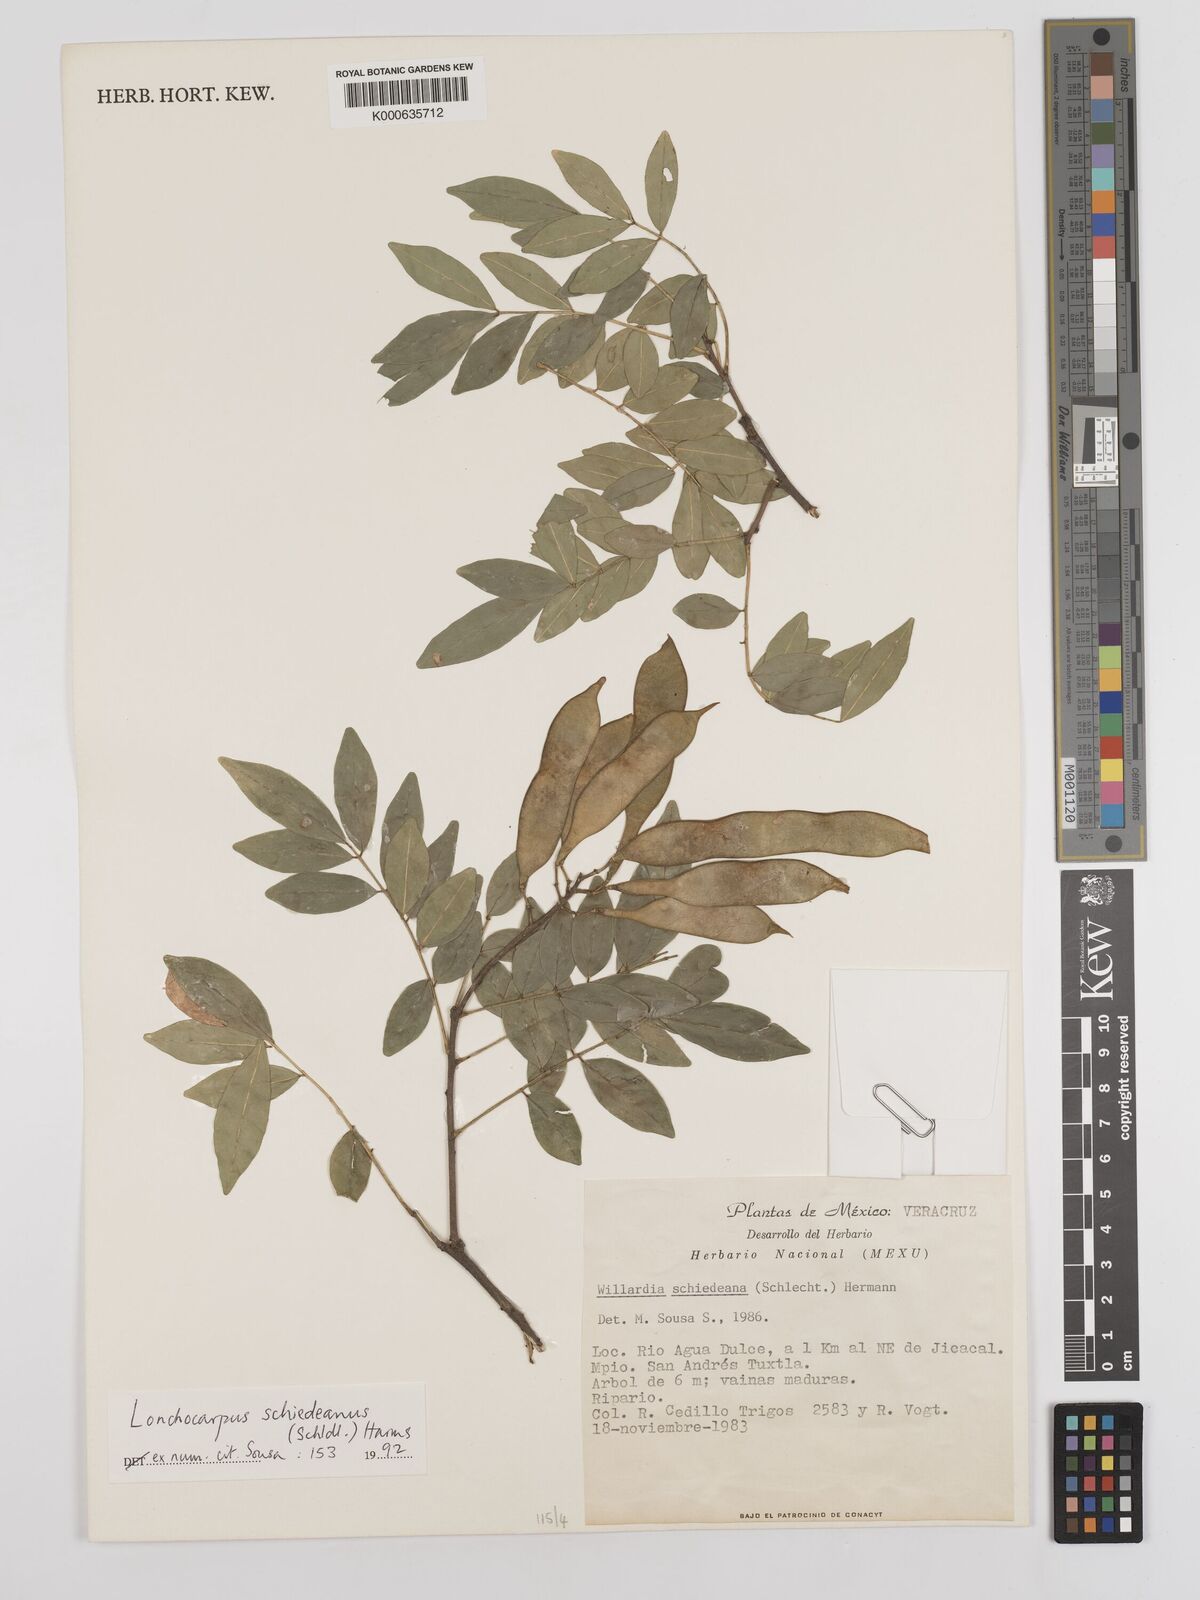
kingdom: Plantae
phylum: Tracheophyta
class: Magnoliopsida
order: Fabales
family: Fabaceae
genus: Lonchocarpus
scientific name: Lonchocarpus schiedeanus
